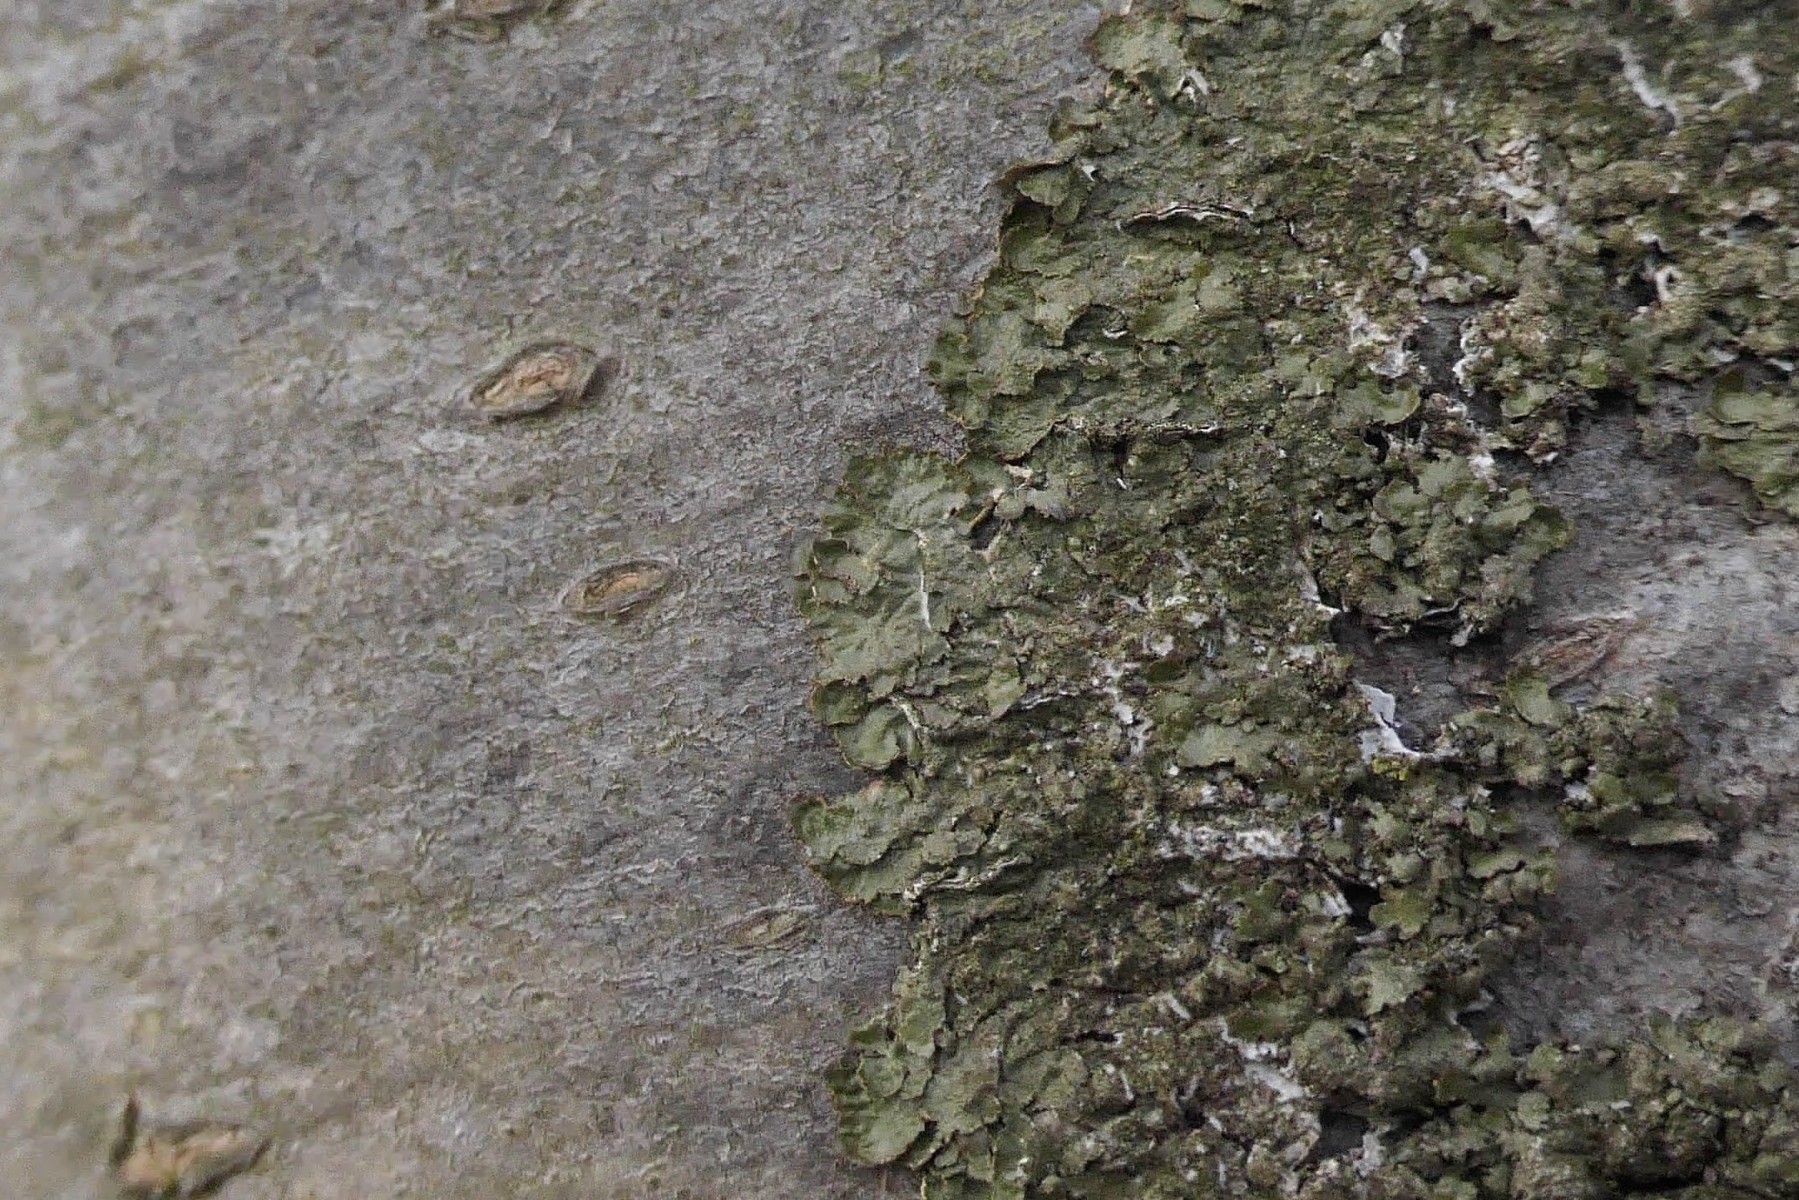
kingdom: Fungi
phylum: Ascomycota
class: Lecanoromycetes
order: Lecanorales
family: Parmeliaceae
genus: Melanelixia
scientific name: Melanelixia glabratula
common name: glinsende skållav
